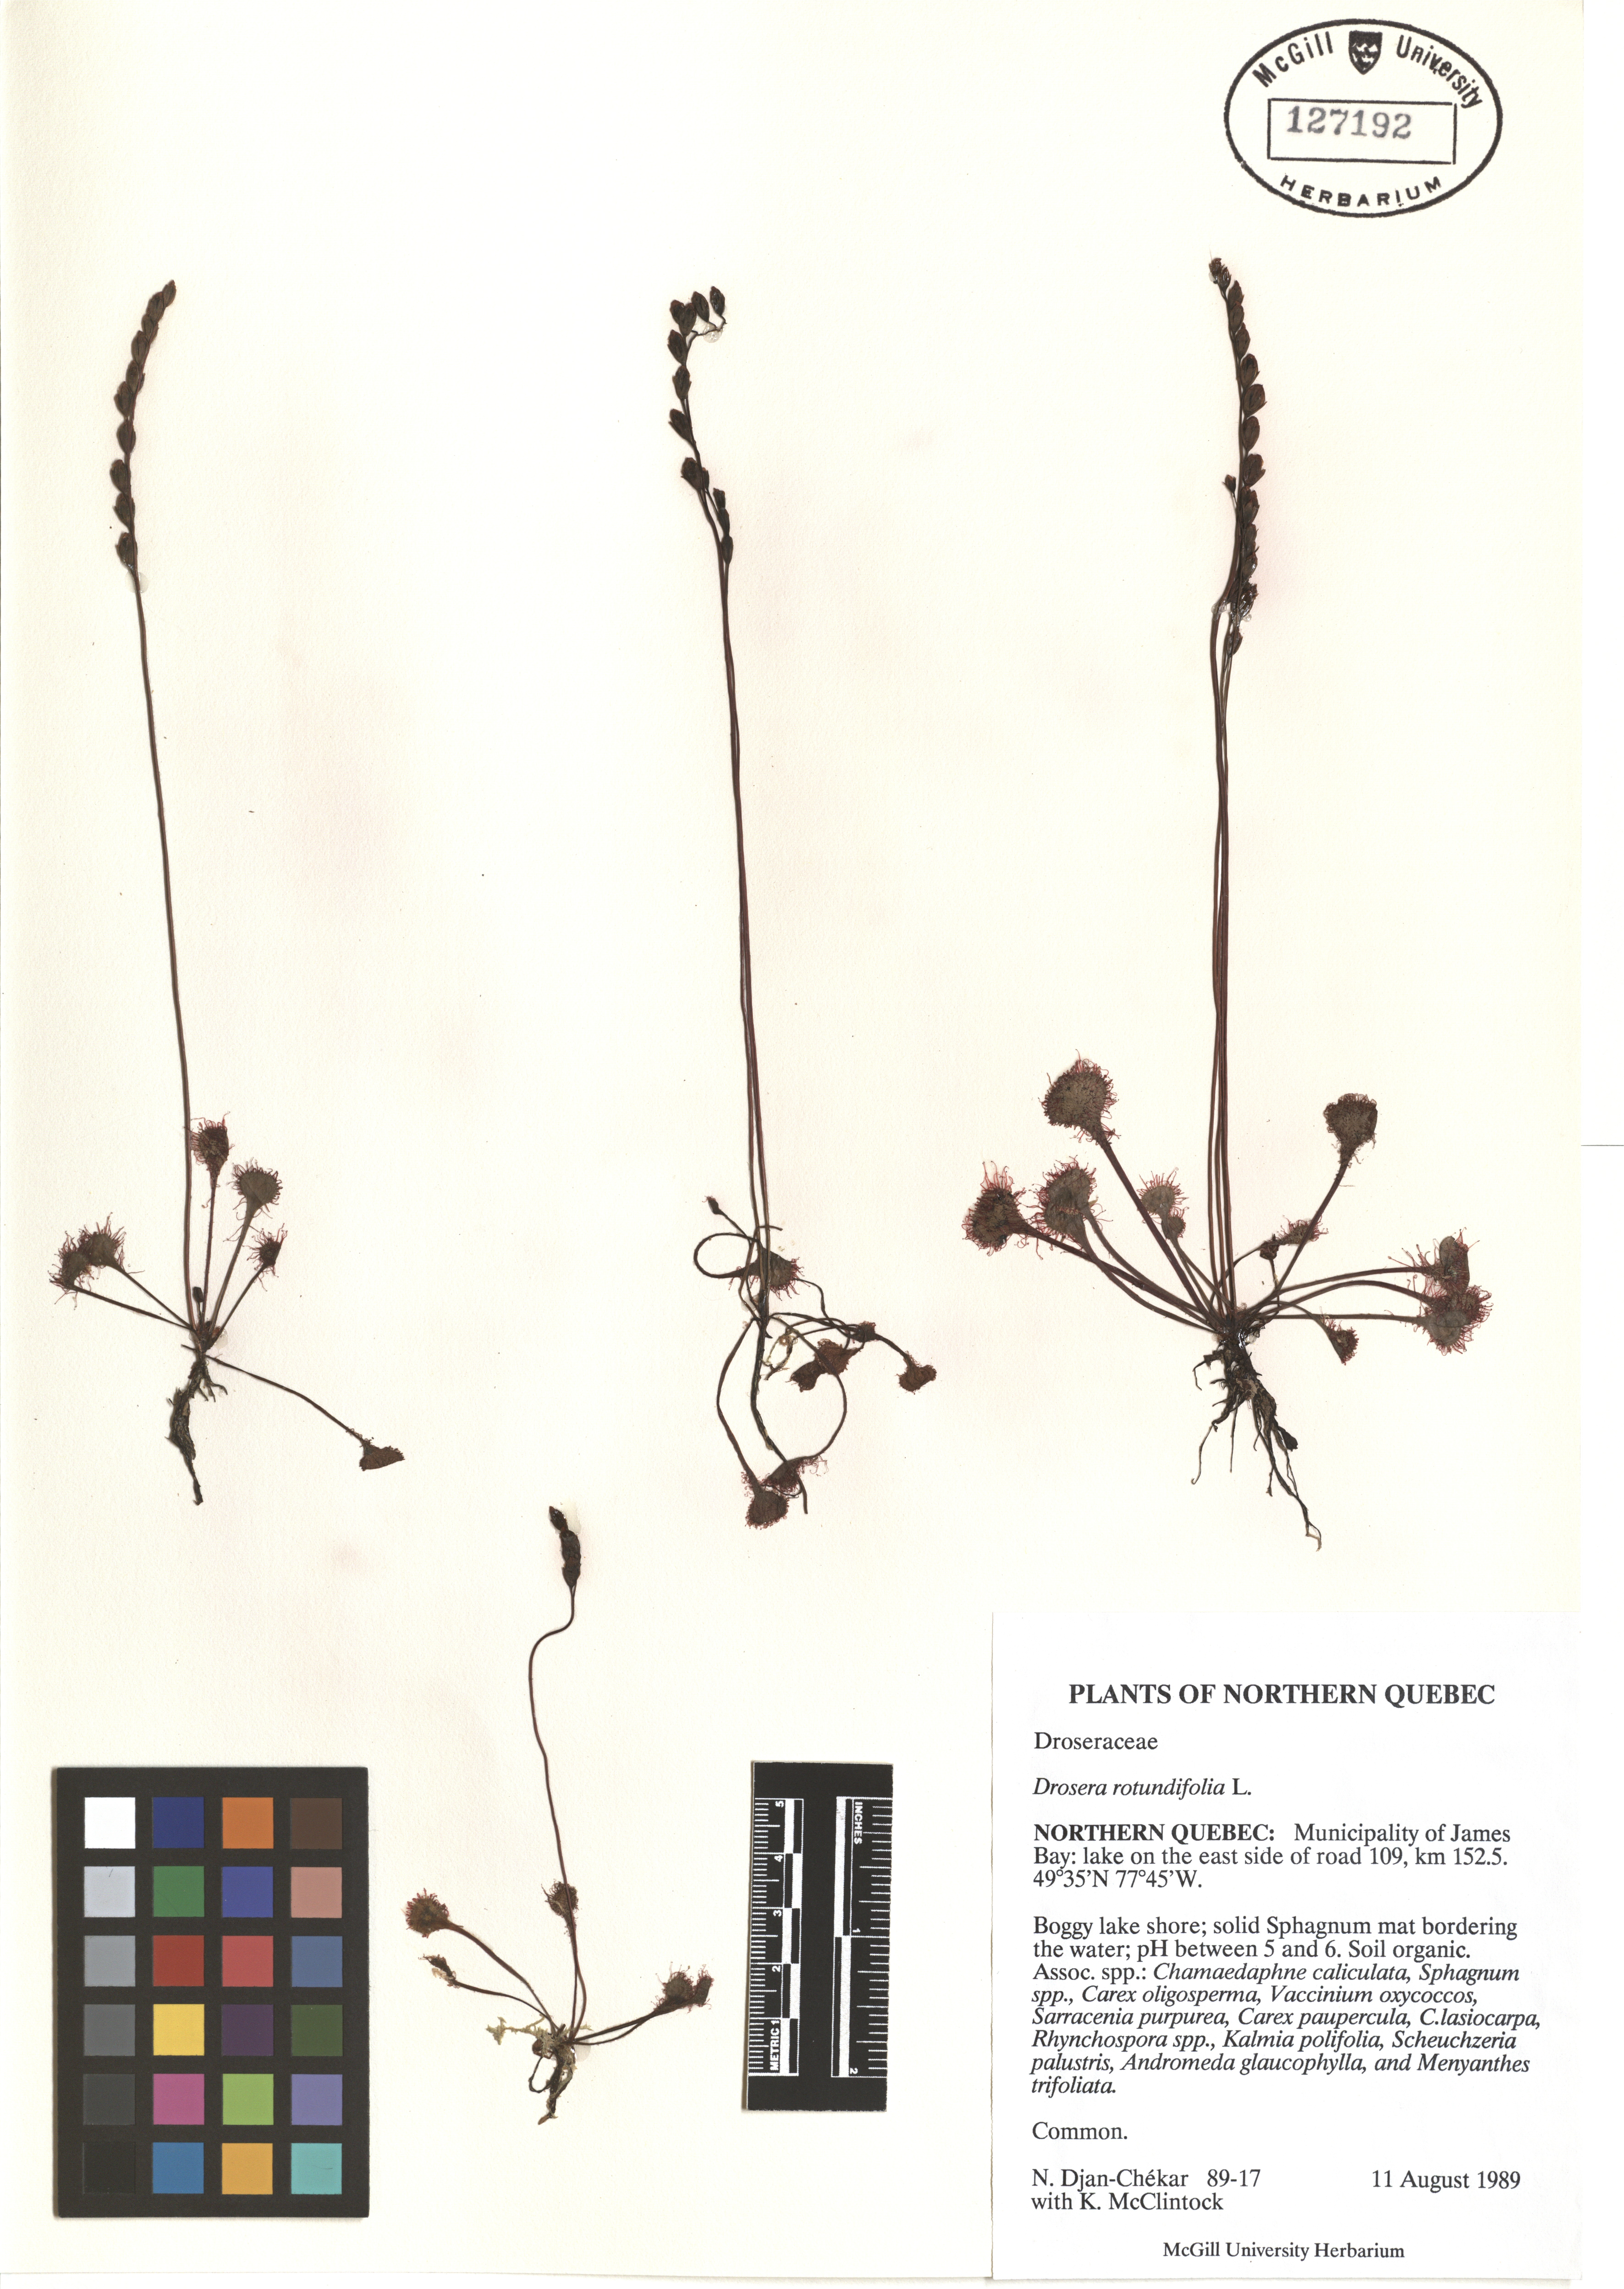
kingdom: Plantae
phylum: Tracheophyta
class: Magnoliopsida
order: Caryophyllales
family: Droseraceae
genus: Drosera
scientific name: Drosera rotundifolia
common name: Round-leaved sundew
